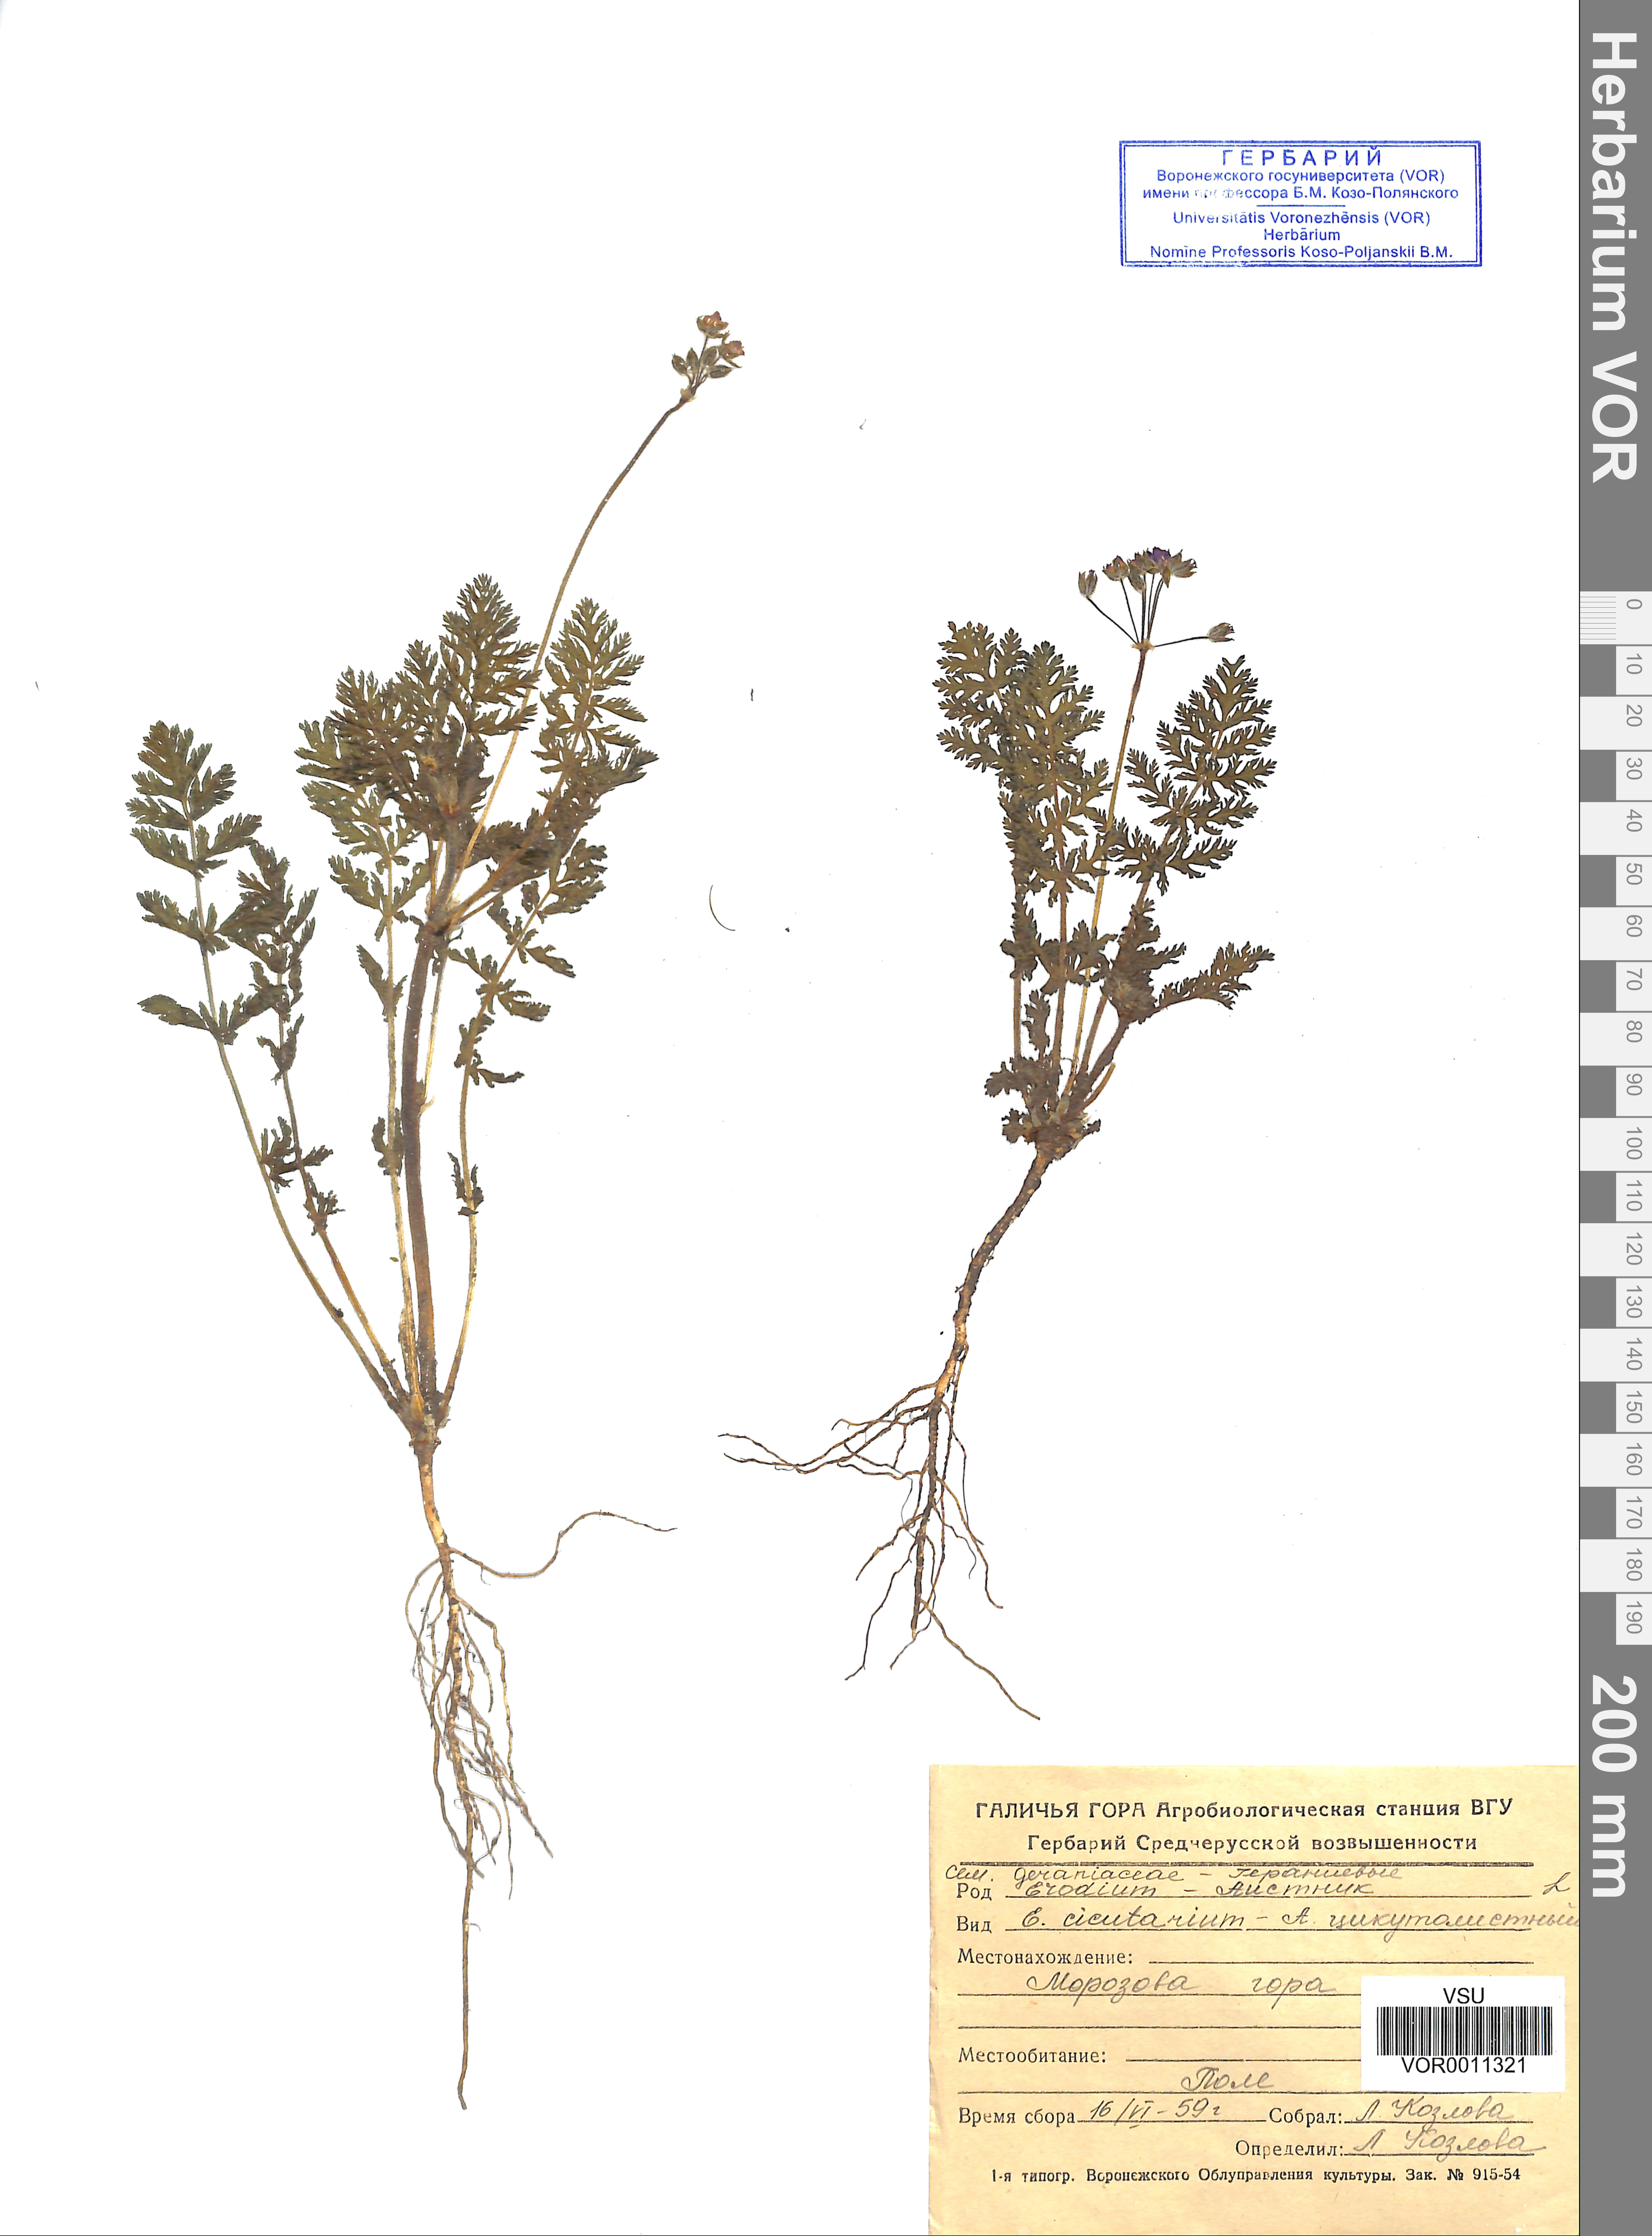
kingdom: Plantae
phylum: Tracheophyta
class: Magnoliopsida
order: Geraniales
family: Geraniaceae
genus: Erodium
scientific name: Erodium cicutarium
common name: Common stork's-bill
